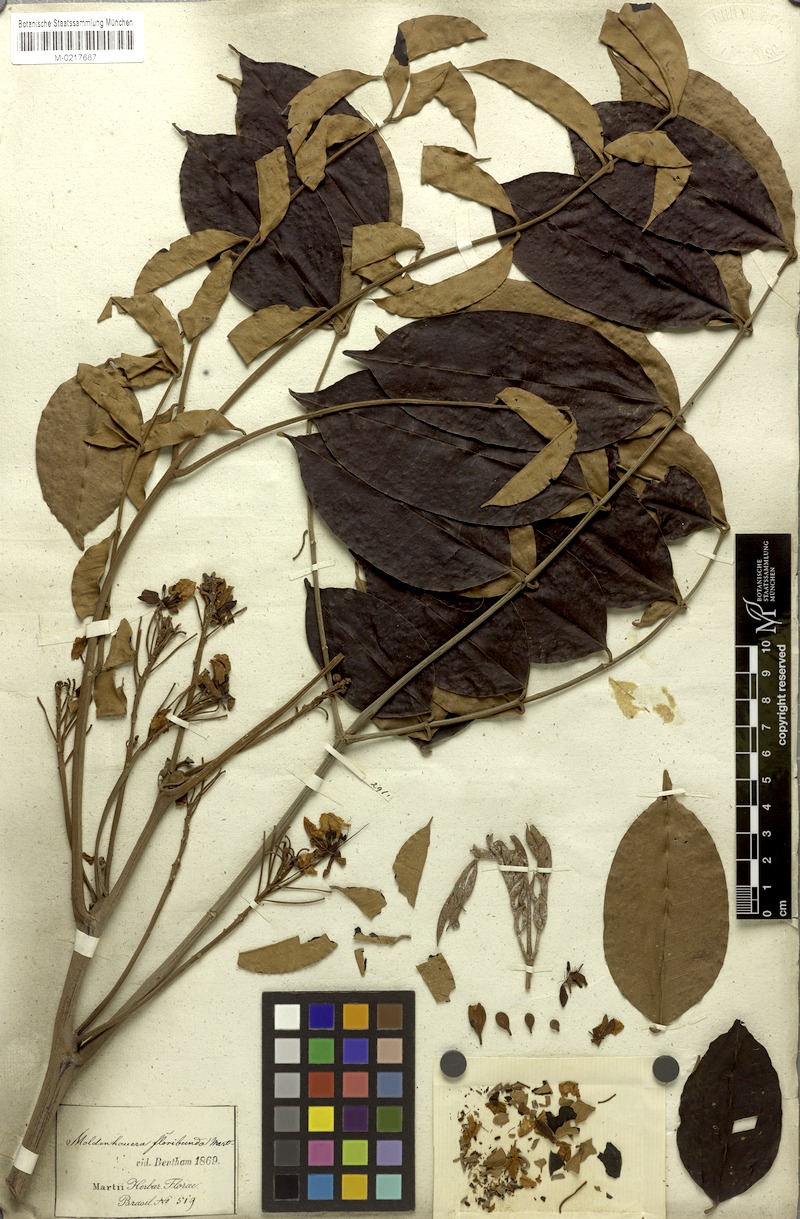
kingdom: Plantae
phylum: Tracheophyta
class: Magnoliopsida
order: Fabales
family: Fabaceae
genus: Moldenhawera
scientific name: Moldenhawera floribunda
